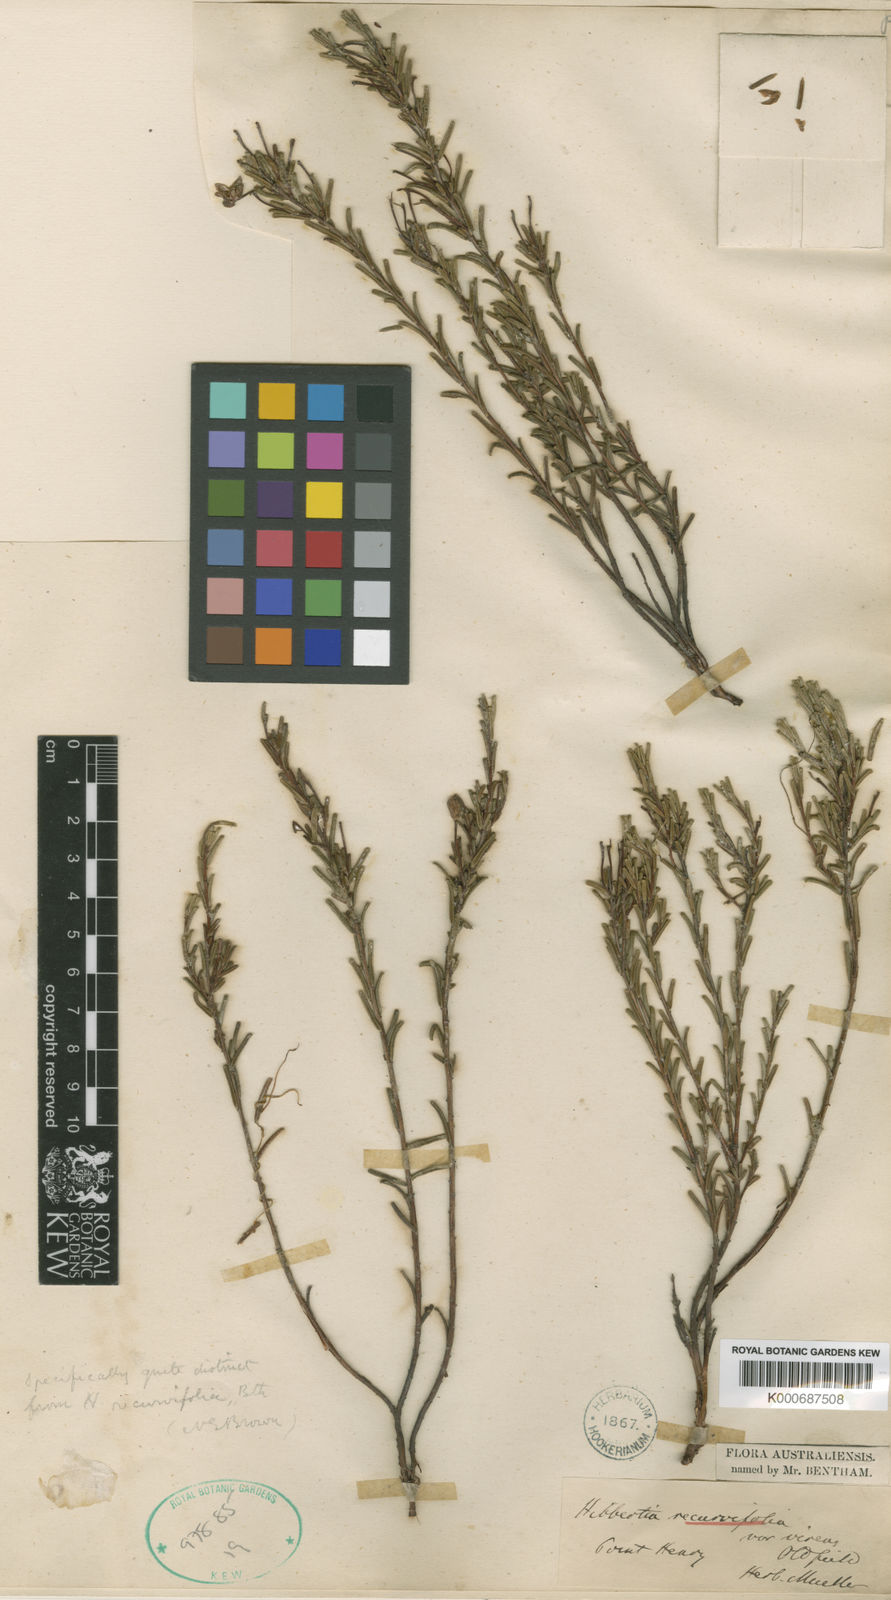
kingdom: Plantae
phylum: Tracheophyta
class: Magnoliopsida
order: Dilleniales
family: Dilleniaceae
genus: Hibbertia
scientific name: Hibbertia verrucosa
